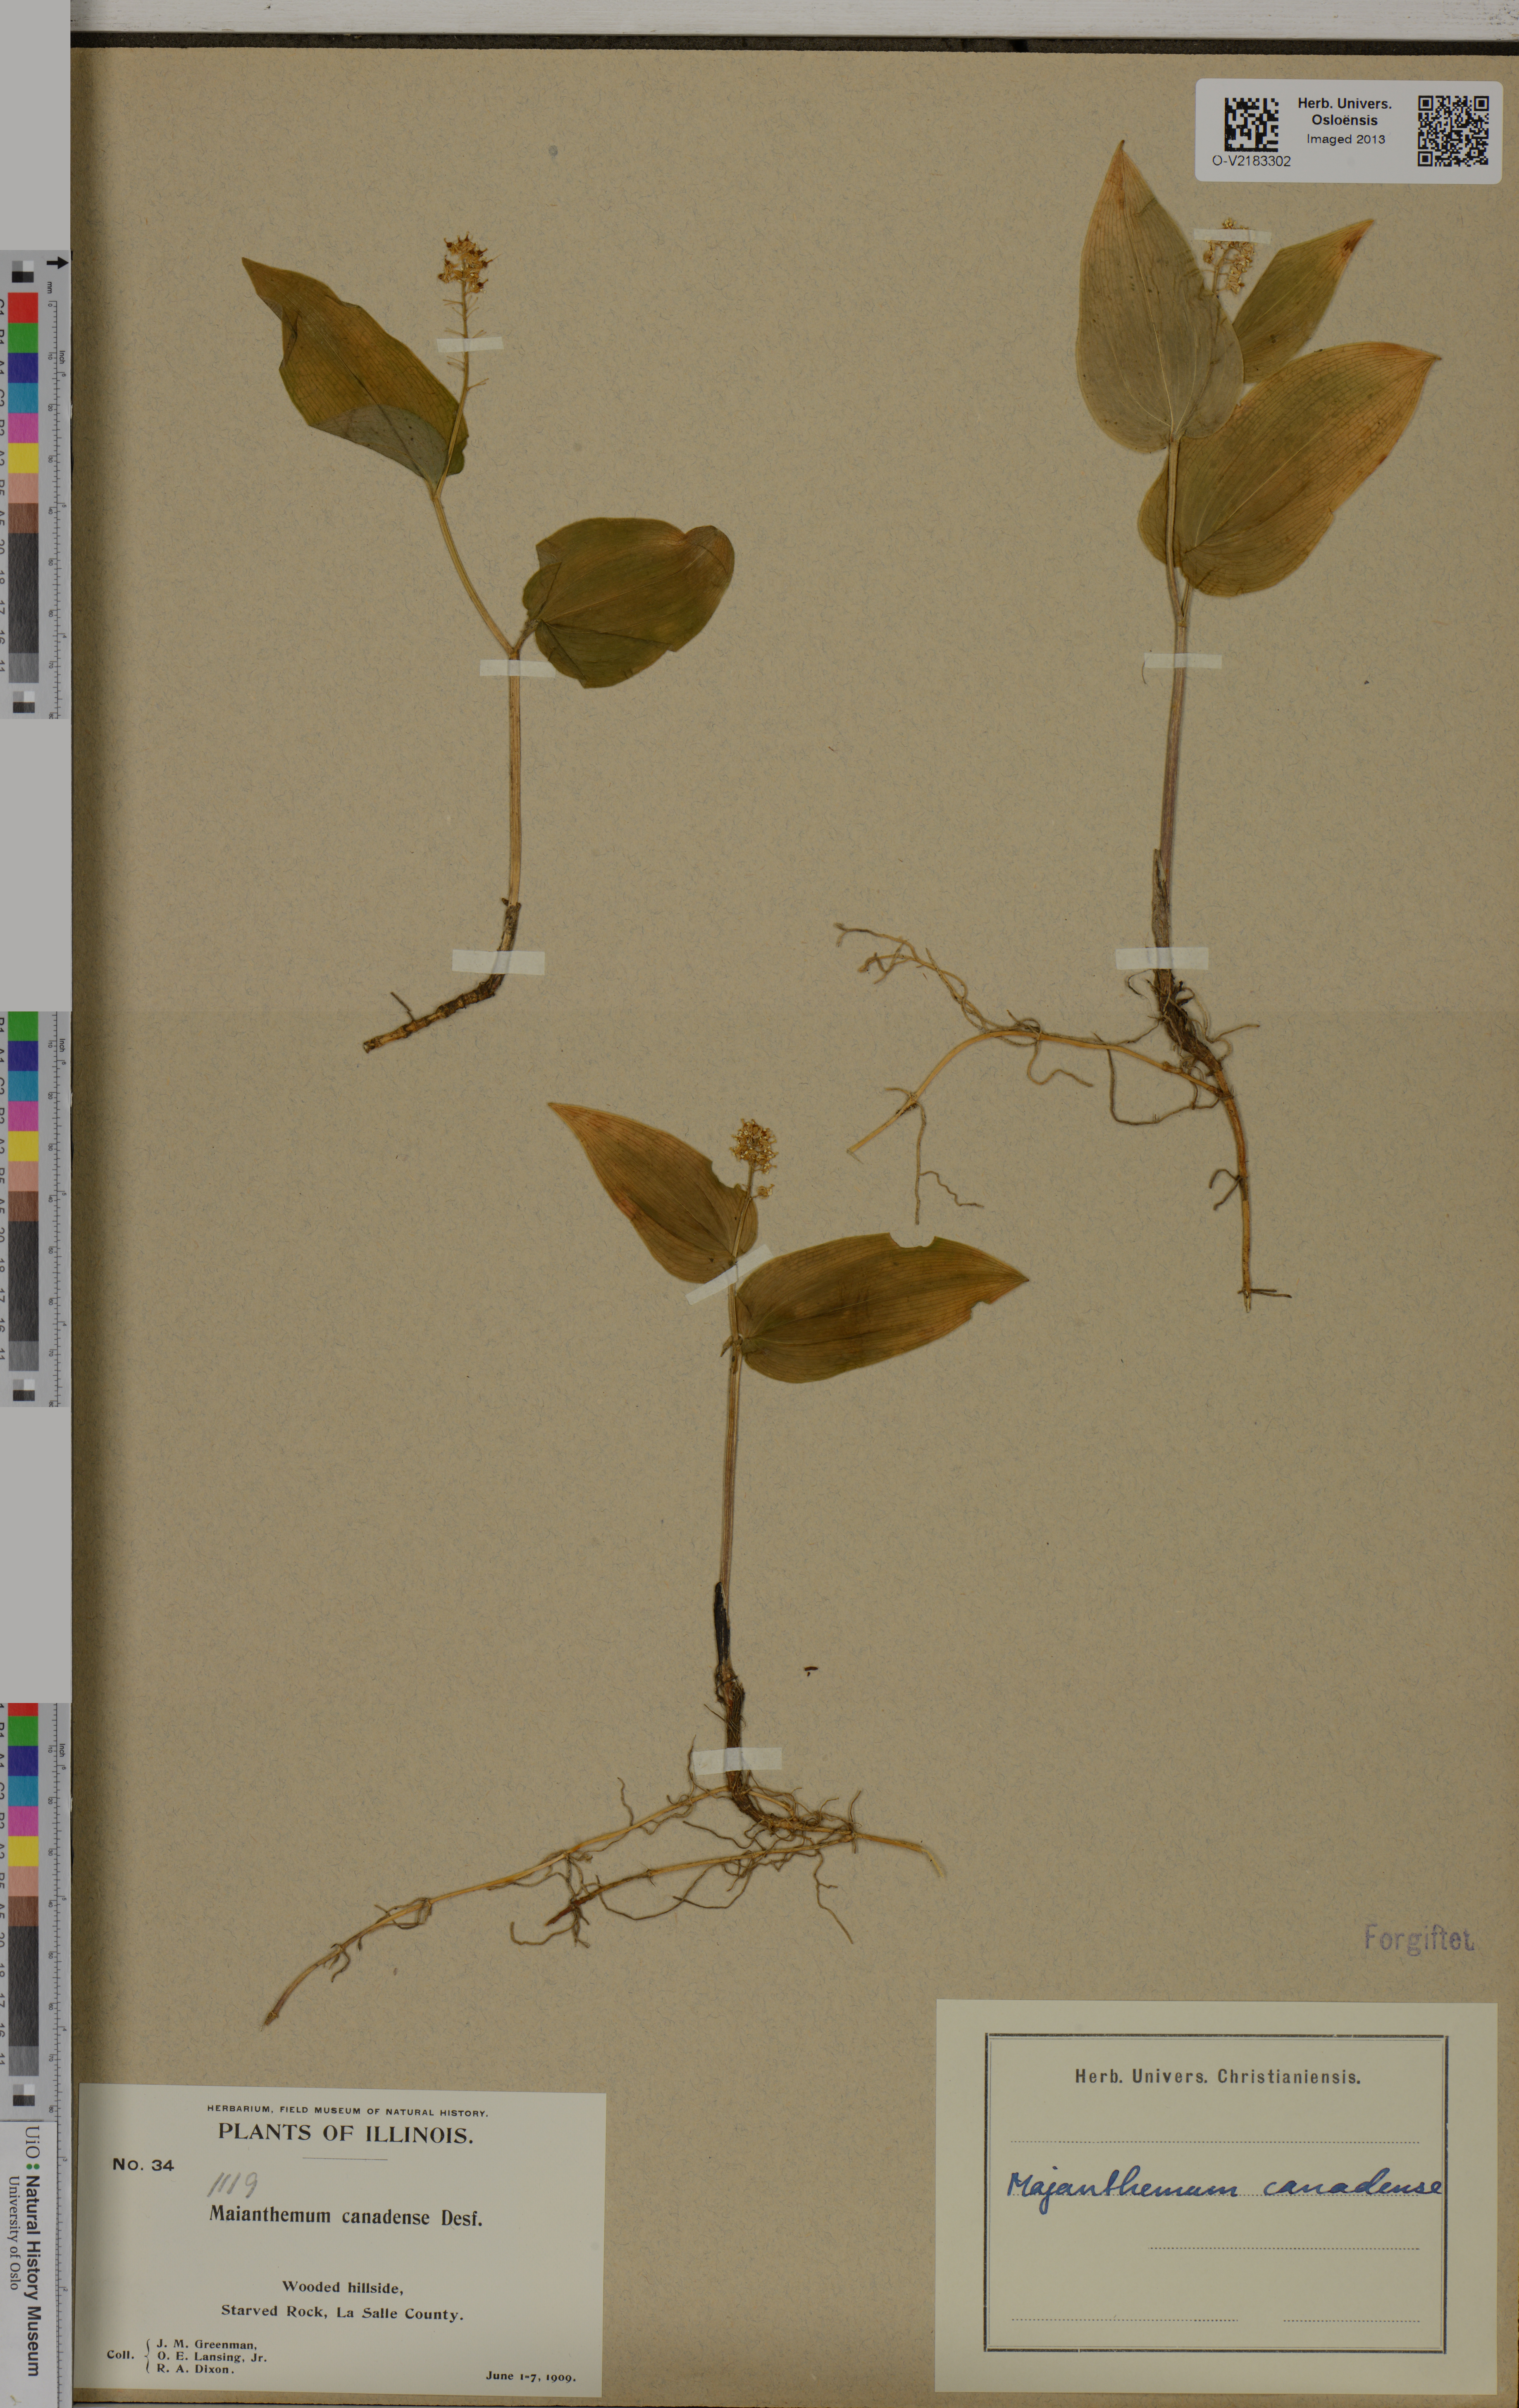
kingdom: Plantae
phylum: Tracheophyta
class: Liliopsida
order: Asparagales
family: Asparagaceae
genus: Maianthemum
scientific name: Maianthemum canadense
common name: False lily-of-the-valley
